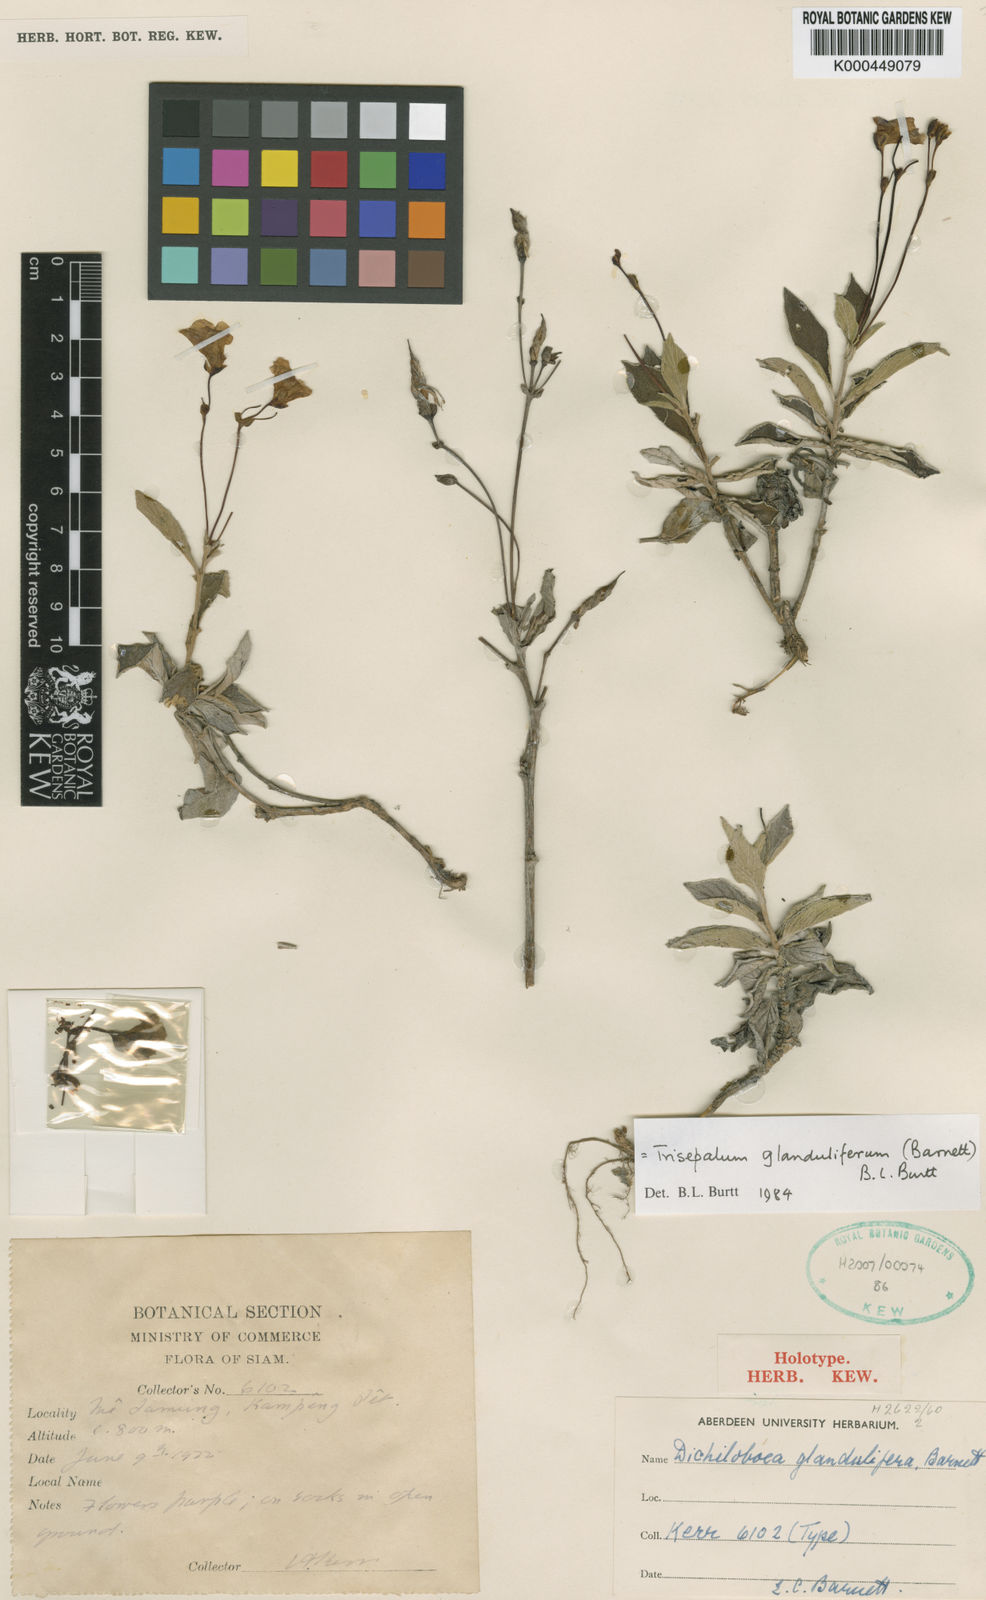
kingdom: Plantae
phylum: Tracheophyta
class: Magnoliopsida
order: Lamiales
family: Gesneriaceae
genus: Paraboea
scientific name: Paraboea glandulifera
